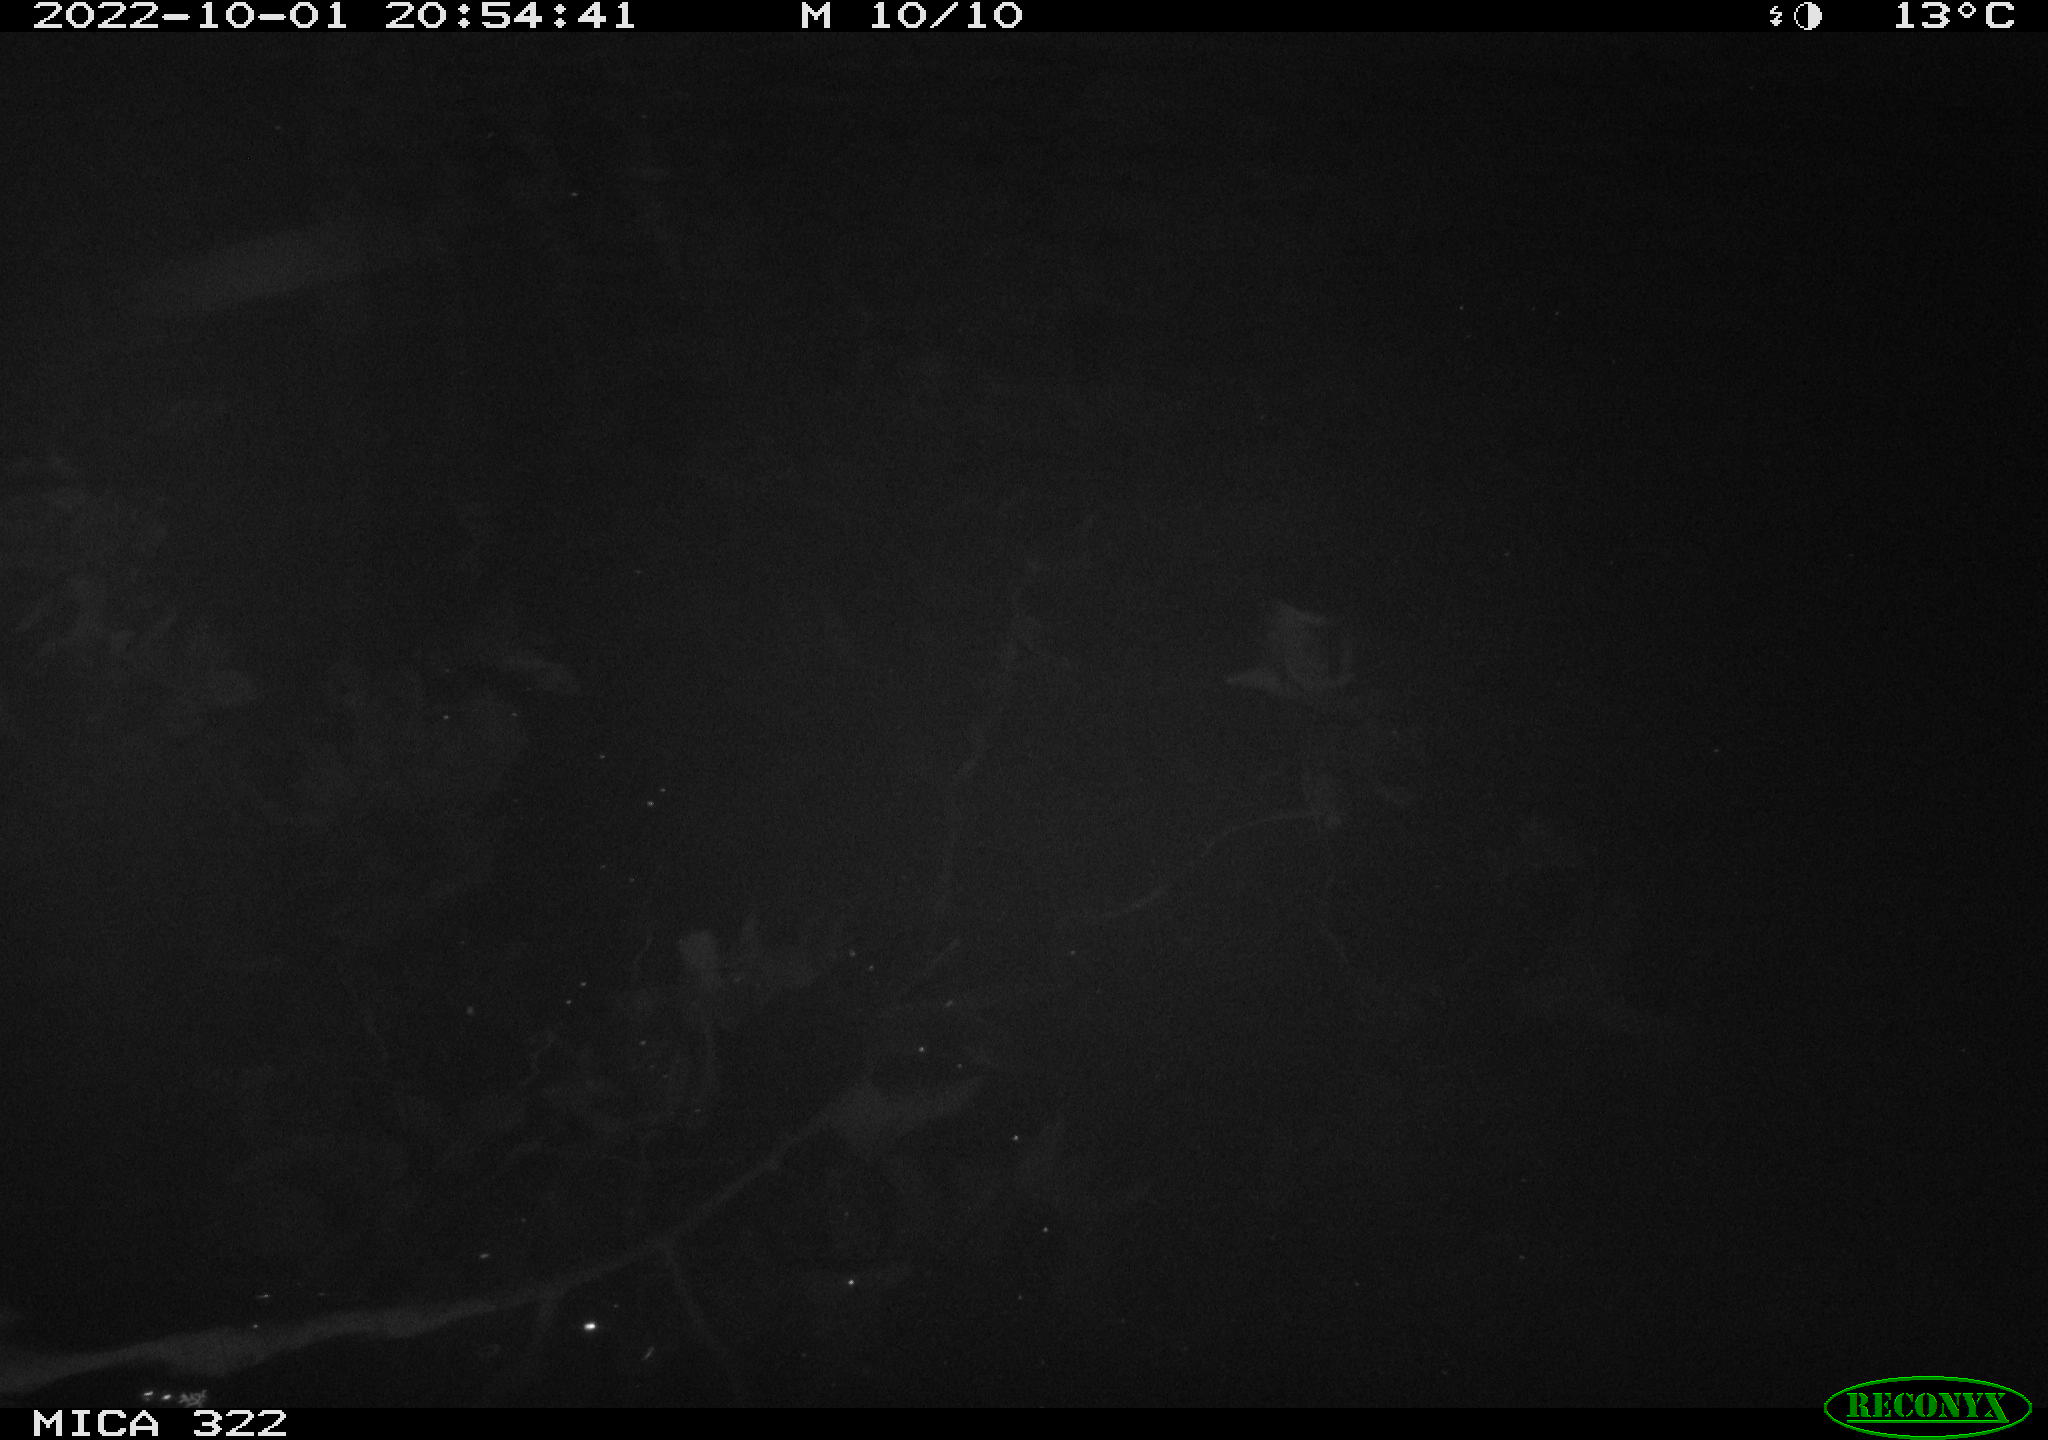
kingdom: Animalia
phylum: Chordata
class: Mammalia
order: Rodentia
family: Cricetidae
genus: Ondatra
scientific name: Ondatra zibethicus
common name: Muskrat
